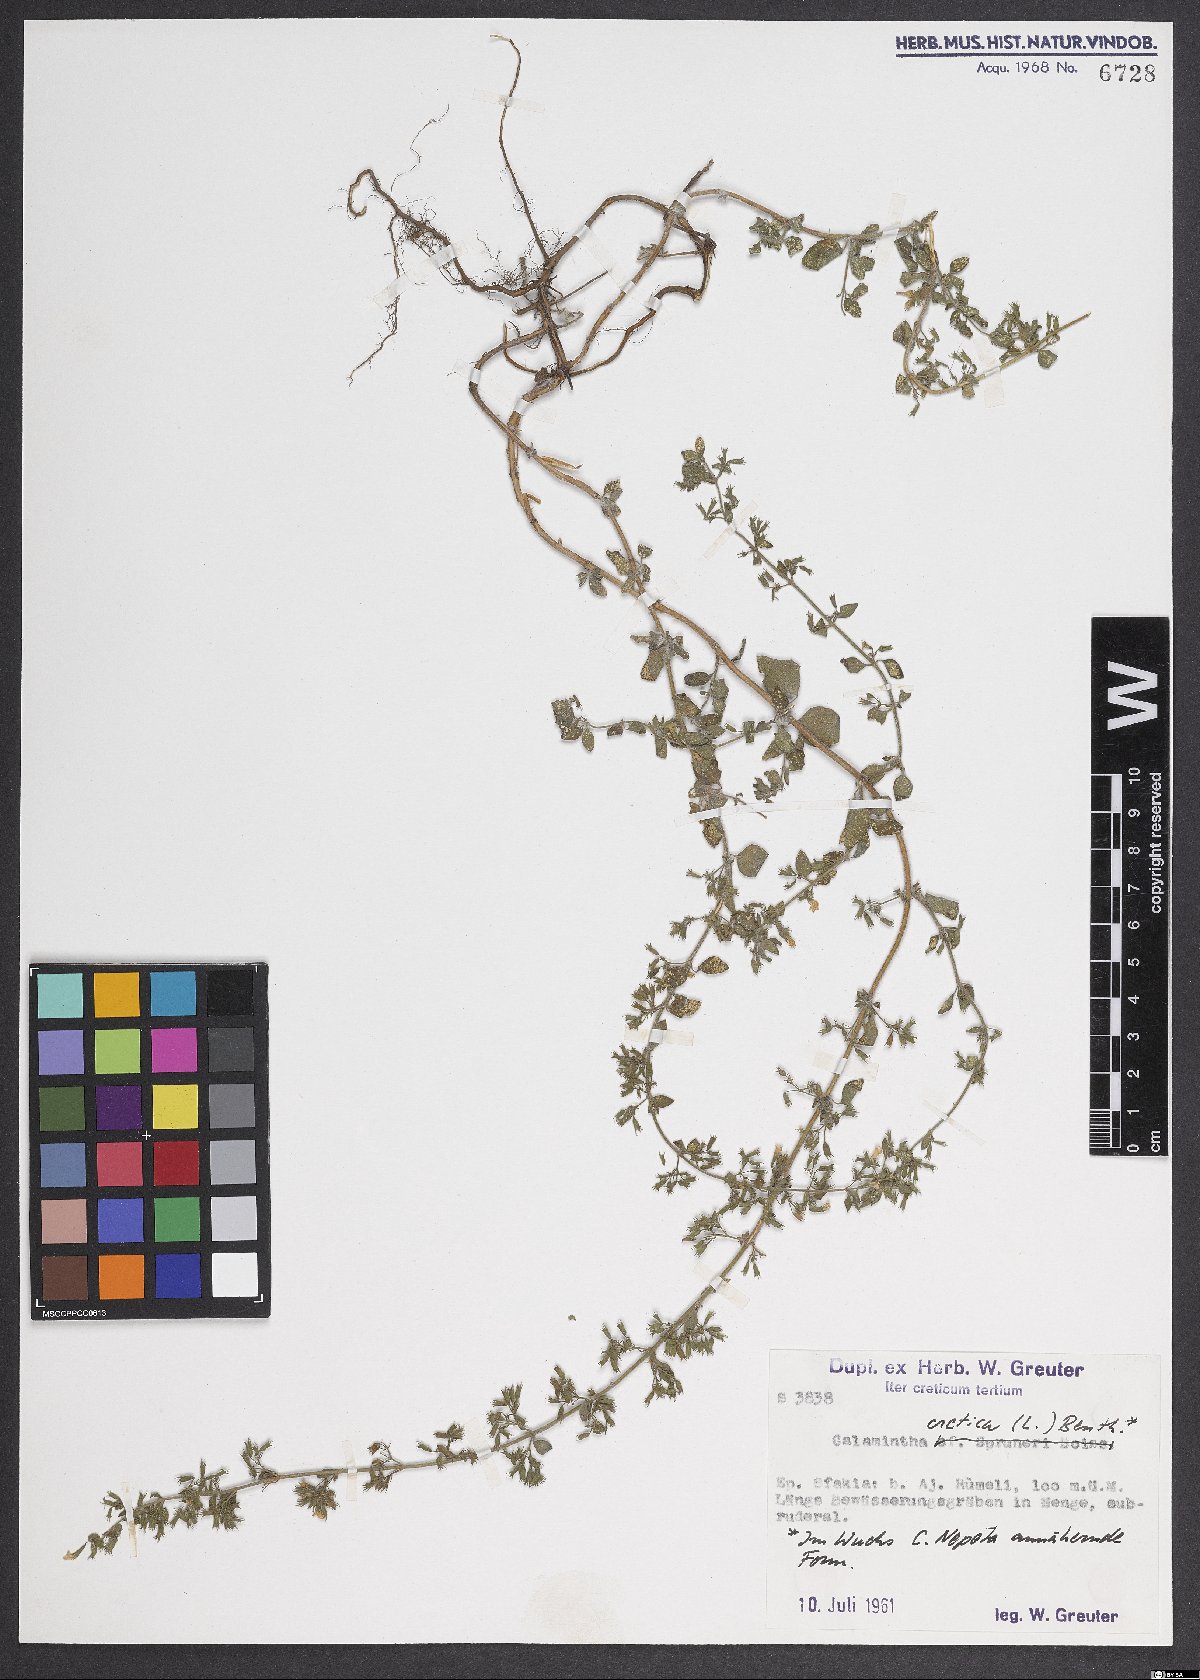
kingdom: Plantae
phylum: Tracheophyta
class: Magnoliopsida
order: Lamiales
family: Lamiaceae
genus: Clinopodium
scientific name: Clinopodium creticum
